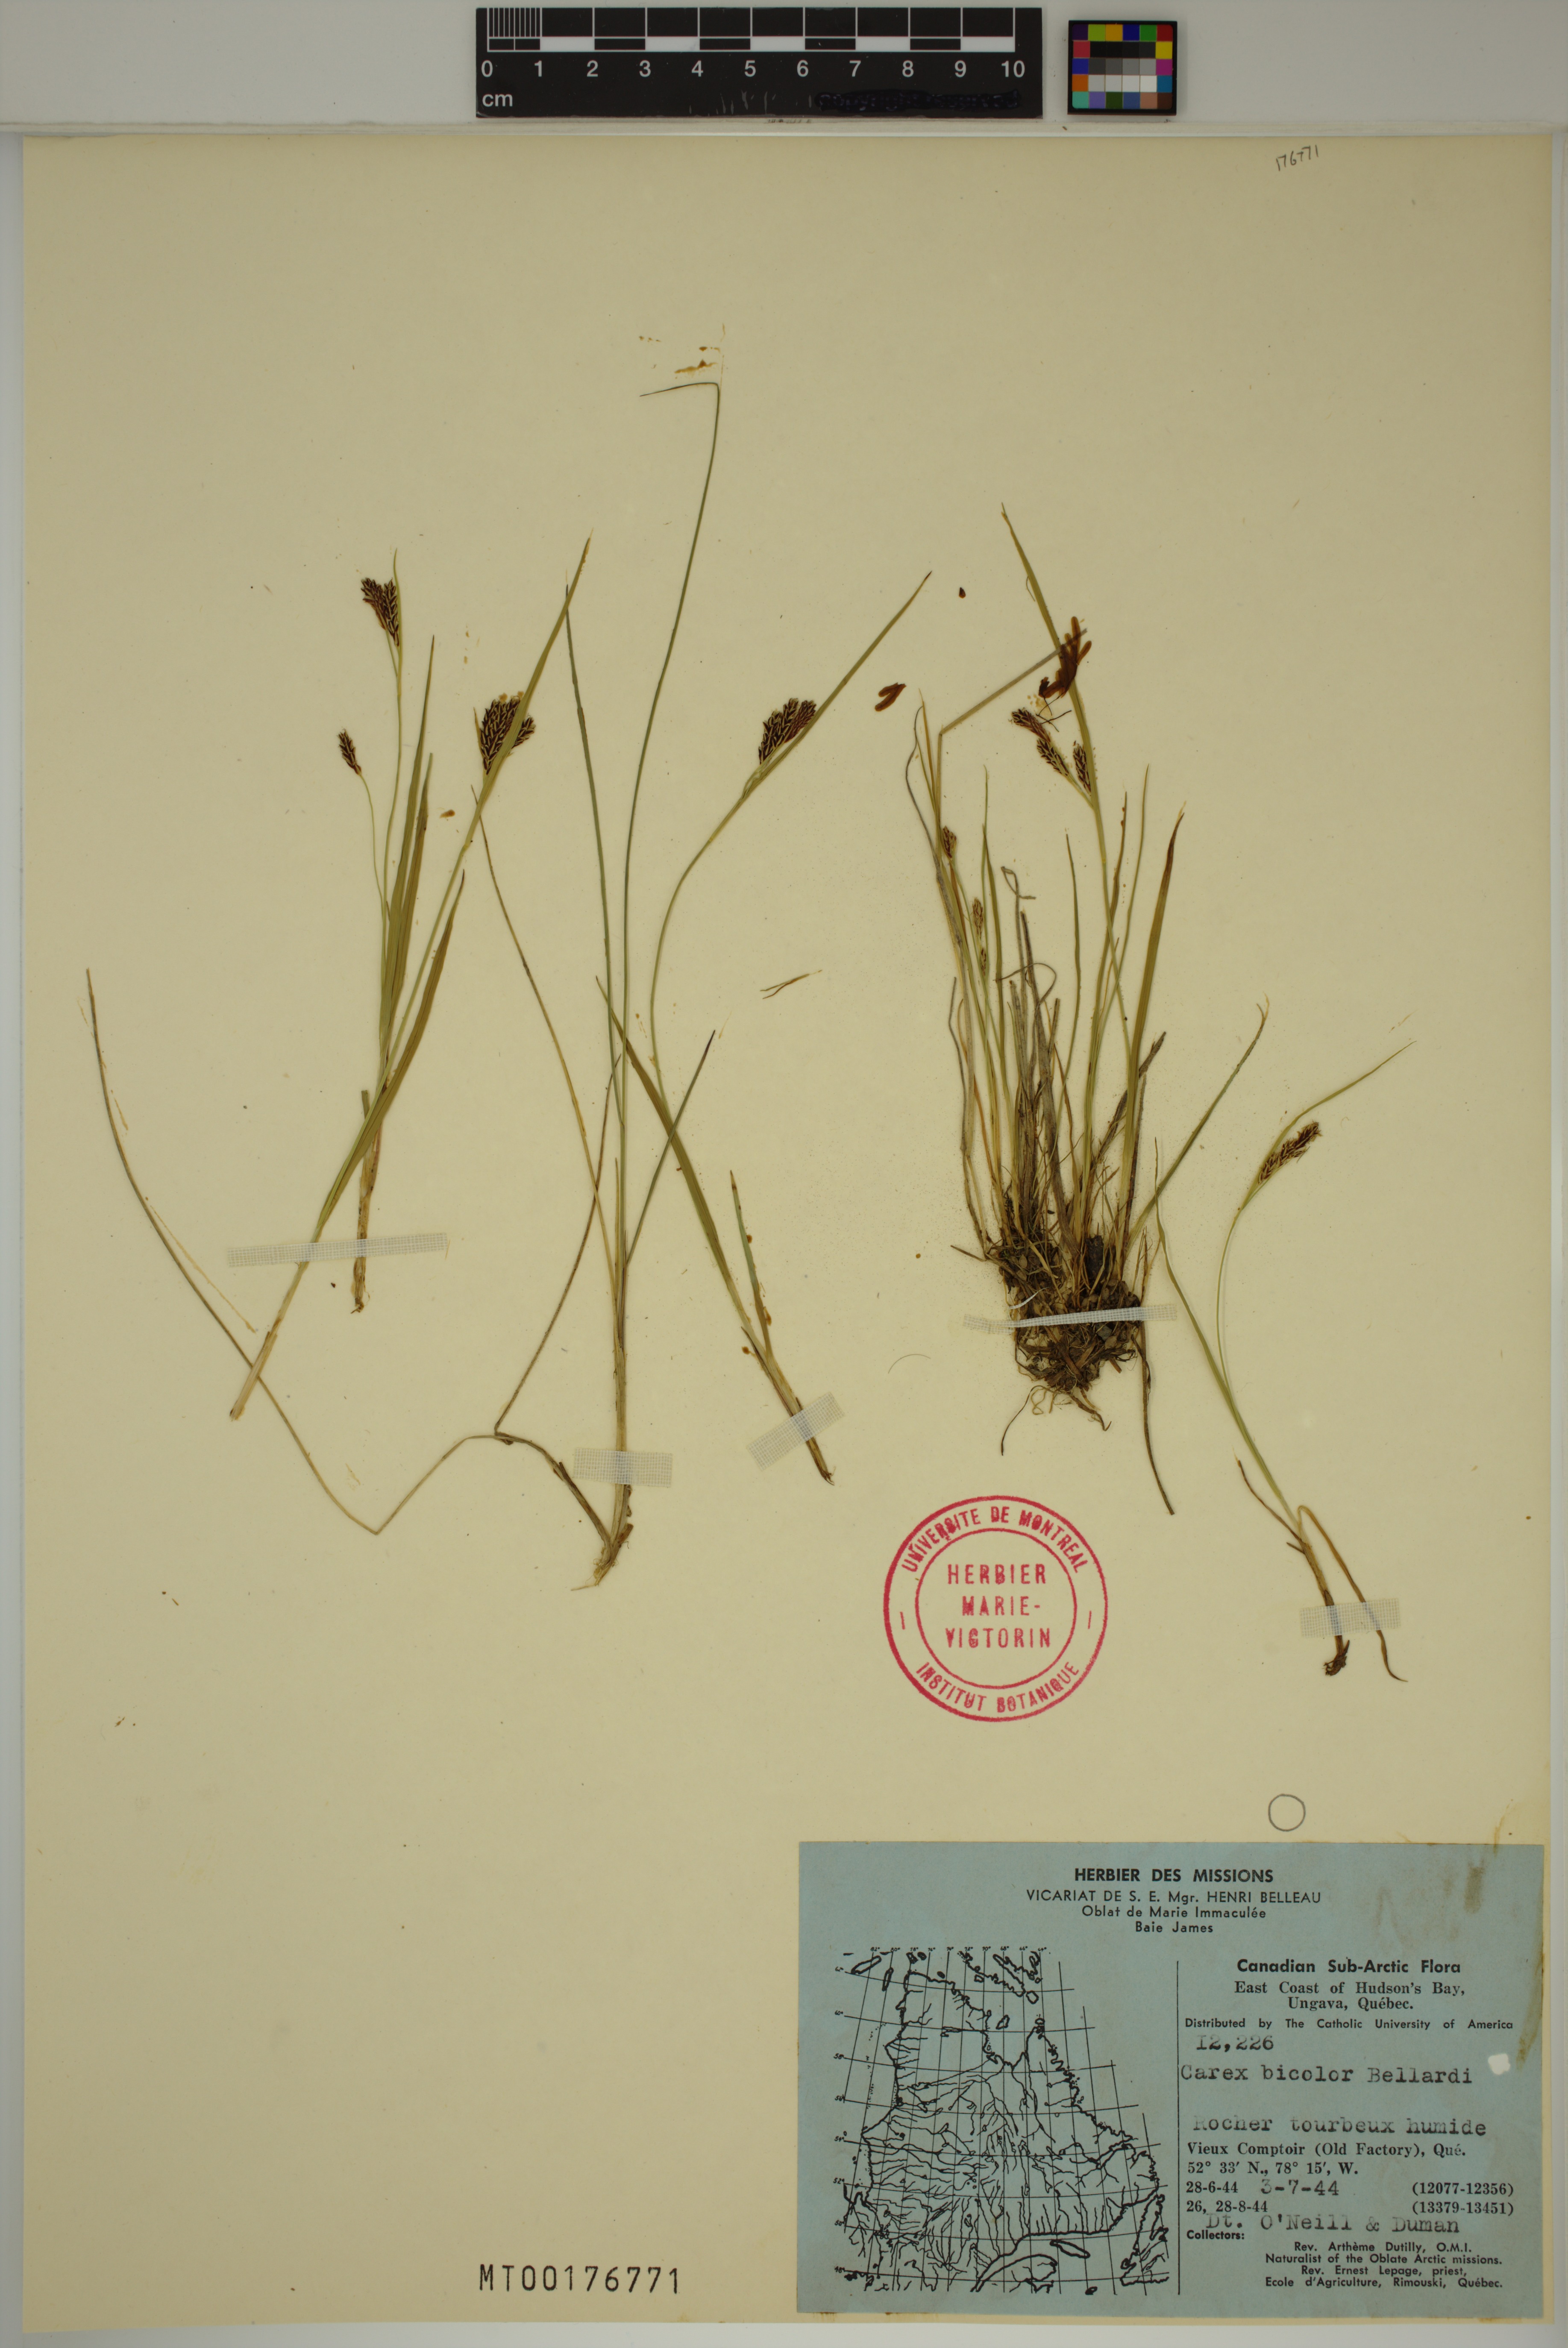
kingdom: Plantae
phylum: Tracheophyta
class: Liliopsida
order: Poales
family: Cyperaceae
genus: Carex
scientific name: Carex bicolor
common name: Bicoloured sedge
